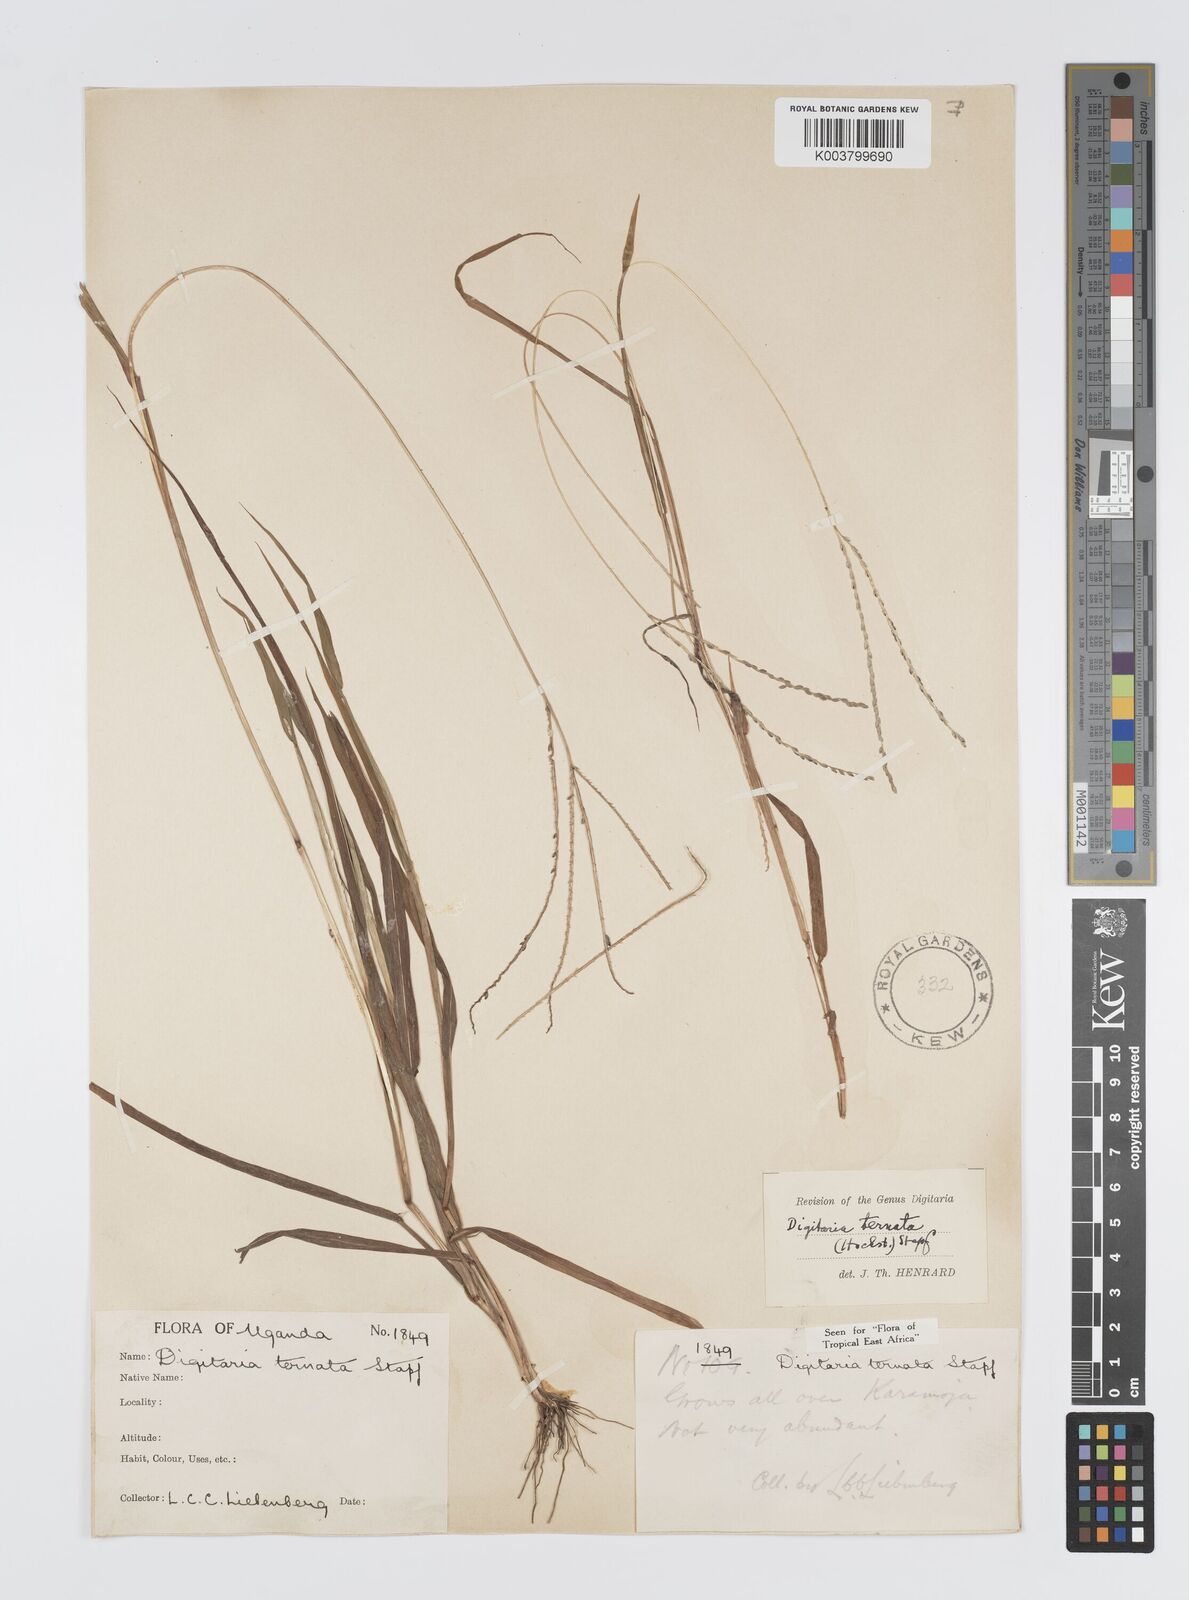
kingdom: Plantae
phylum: Tracheophyta
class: Liliopsida
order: Poales
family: Poaceae
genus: Digitaria
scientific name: Digitaria ternata
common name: Blackseed crabgrass
